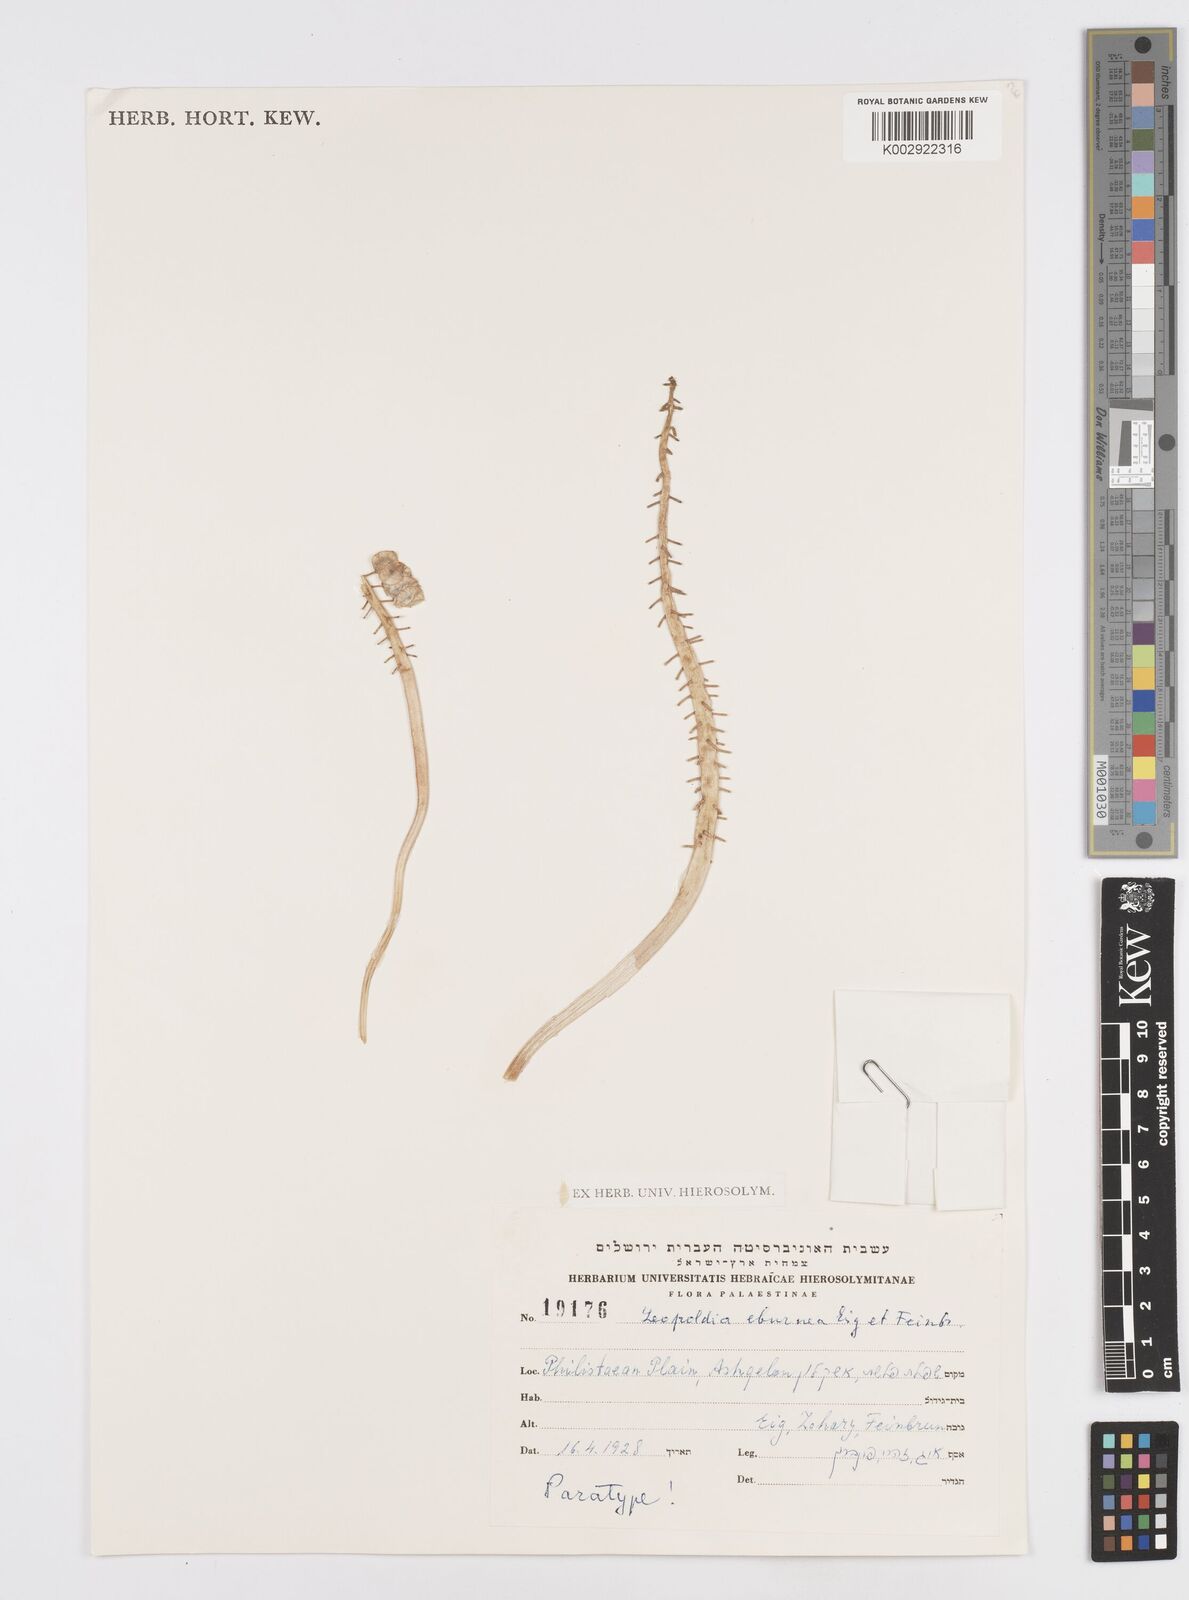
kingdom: Plantae
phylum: Tracheophyta
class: Liliopsida
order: Asparagales
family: Asparagaceae
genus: Muscari
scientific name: Muscari eburneum
